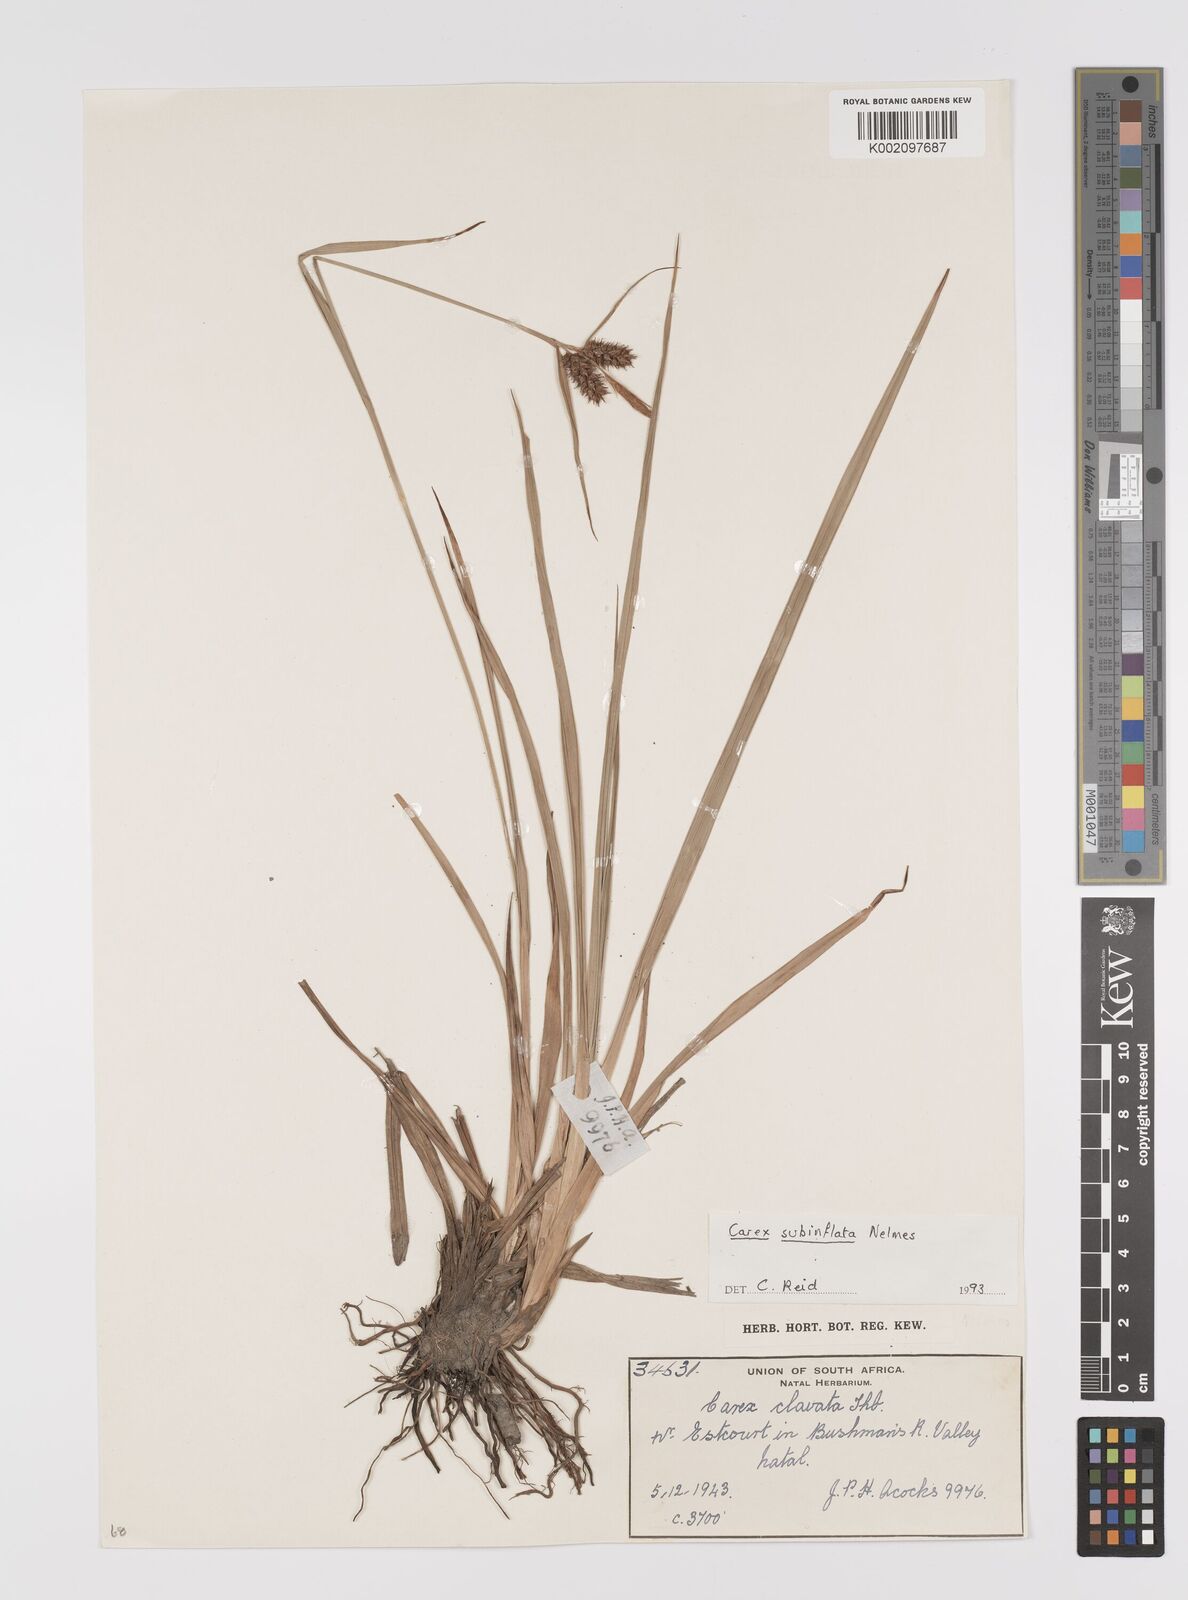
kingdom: Plantae
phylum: Tracheophyta
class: Liliopsida
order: Poales
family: Cyperaceae
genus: Carex
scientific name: Carex subinflata
